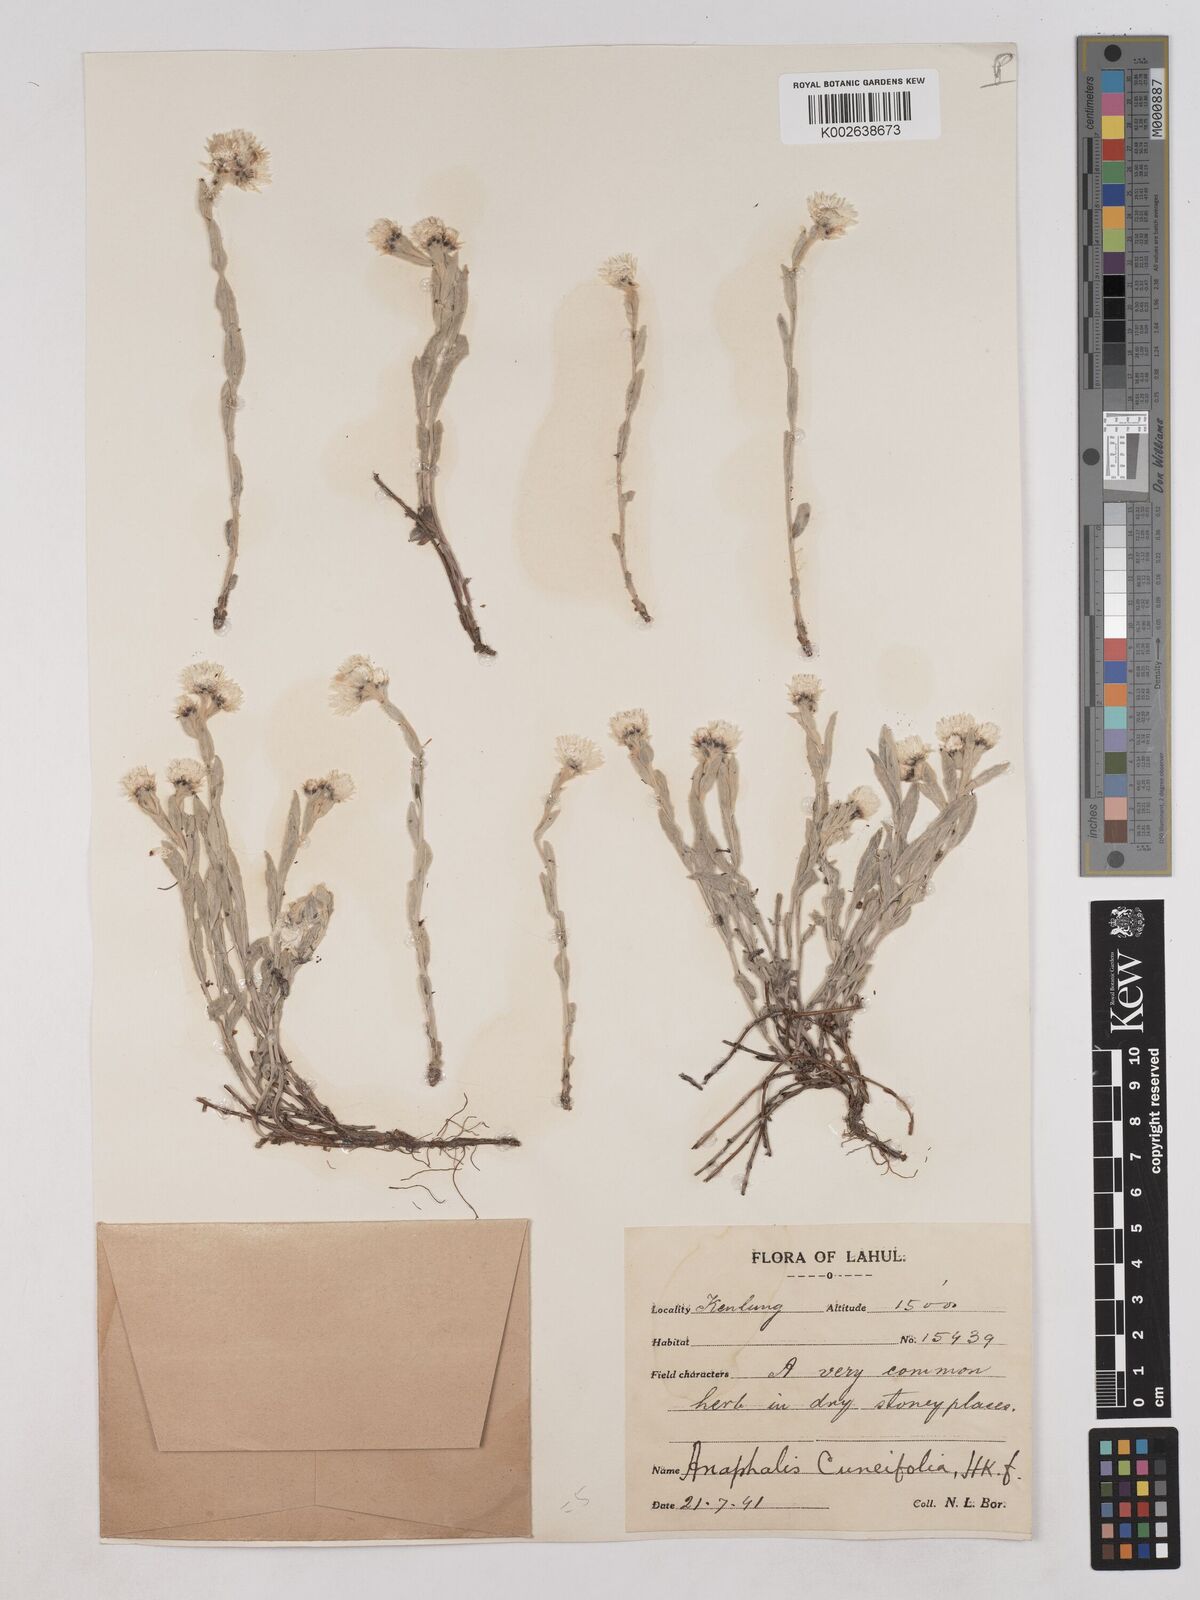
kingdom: Plantae
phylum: Tracheophyta
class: Magnoliopsida
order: Asterales
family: Asteraceae
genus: Anaphalis
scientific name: Anaphalis nepalensis
